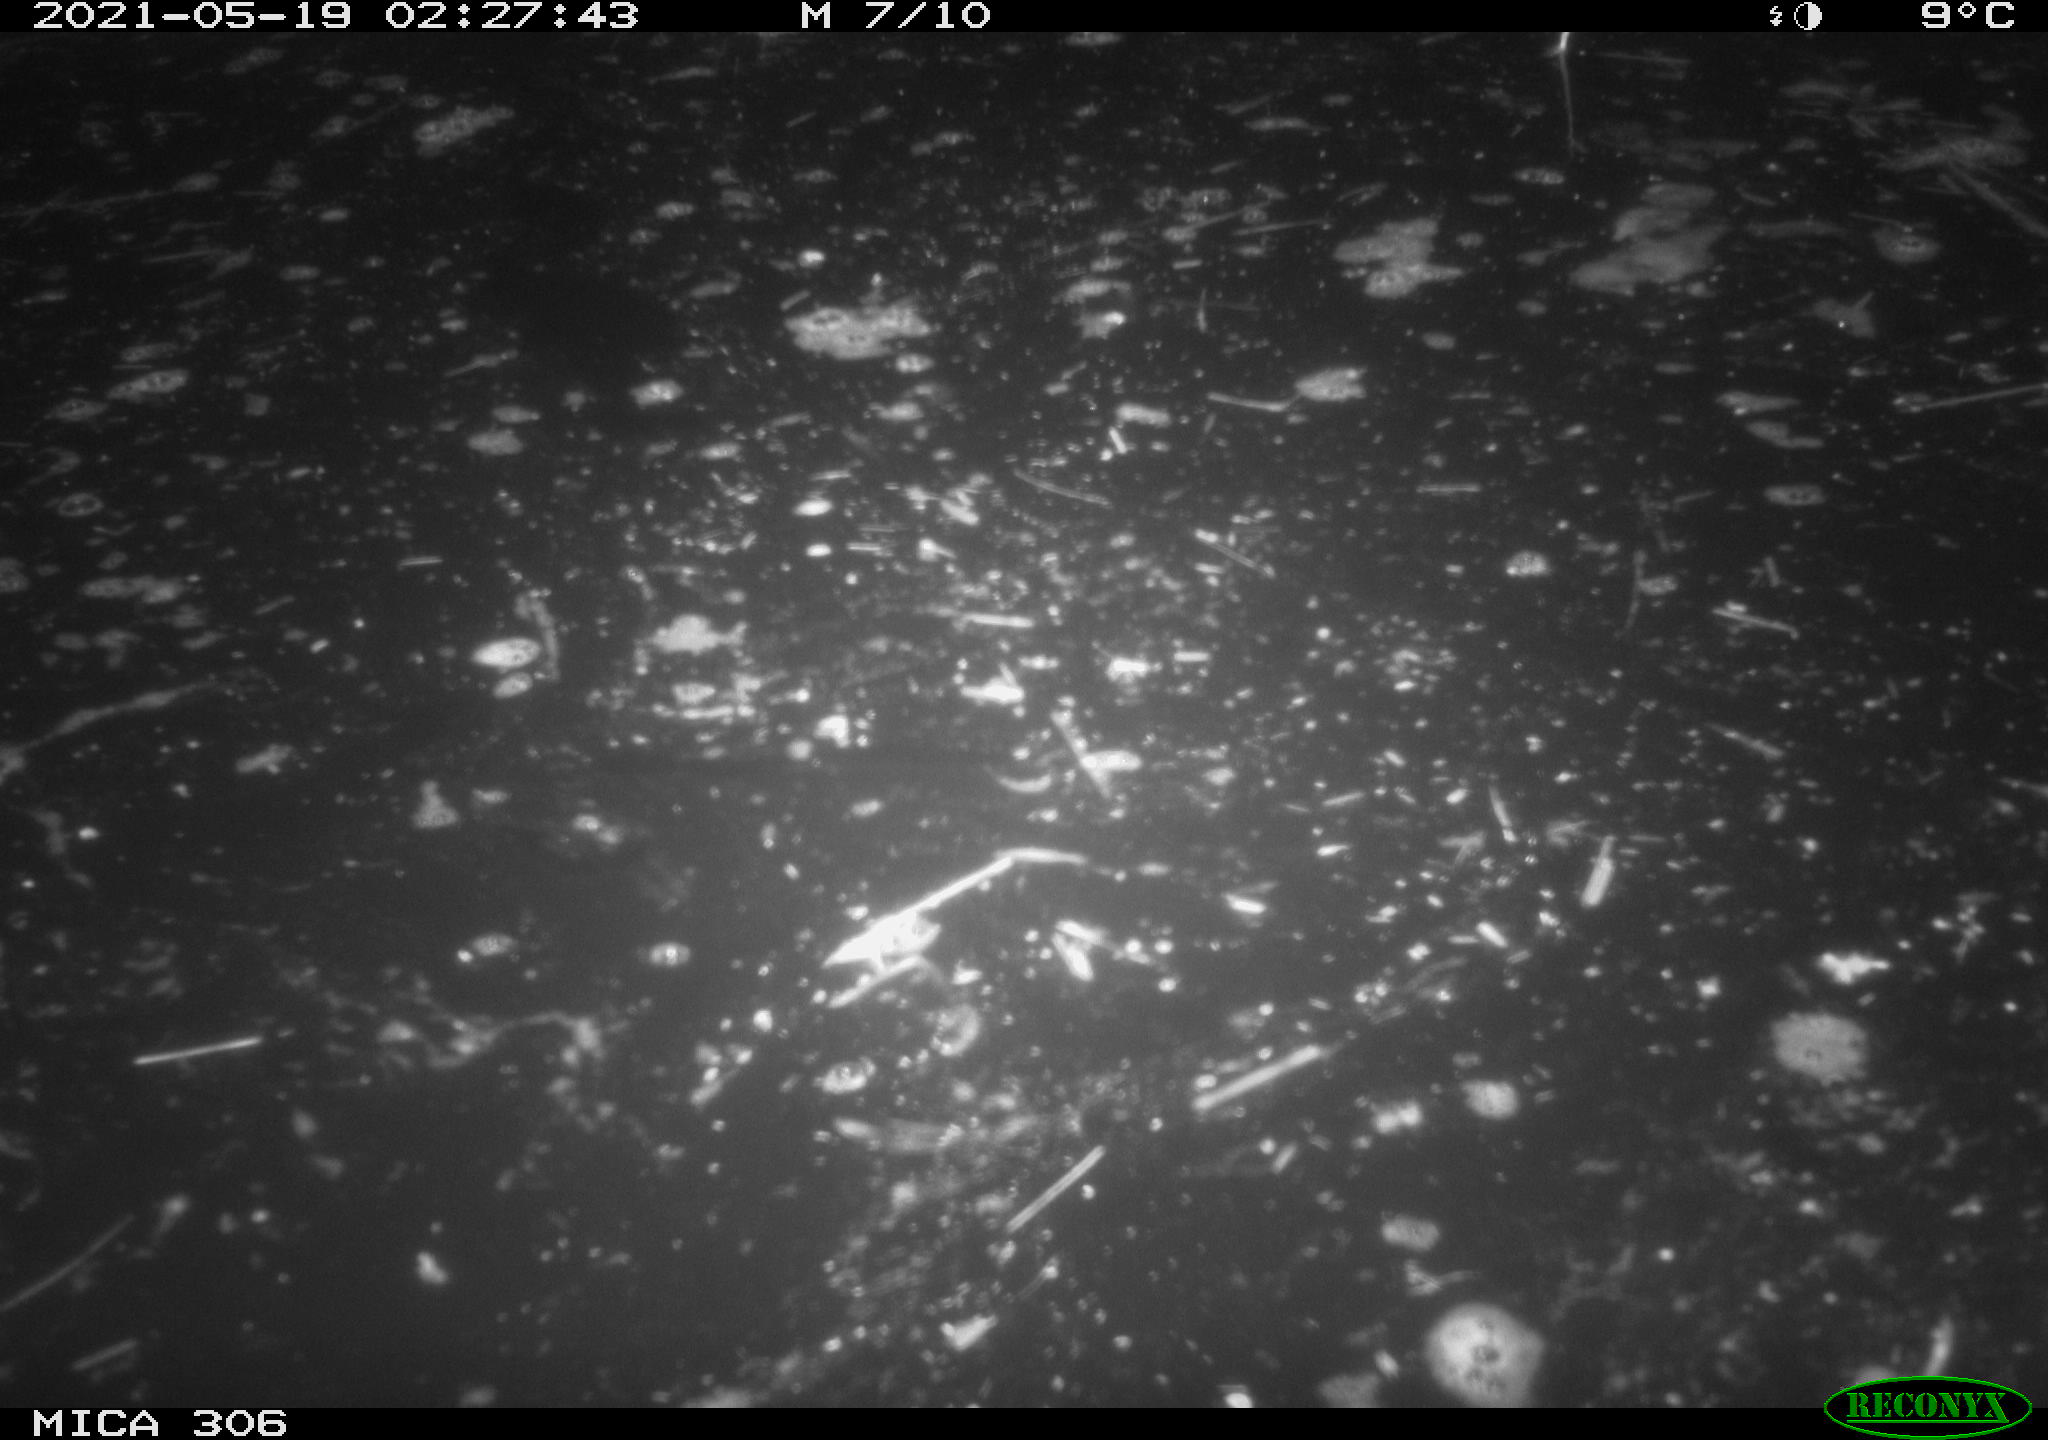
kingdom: Animalia
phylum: Chordata
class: Aves
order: Anseriformes
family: Anatidae
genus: Anas
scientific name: Anas platyrhynchos
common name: Mallard
